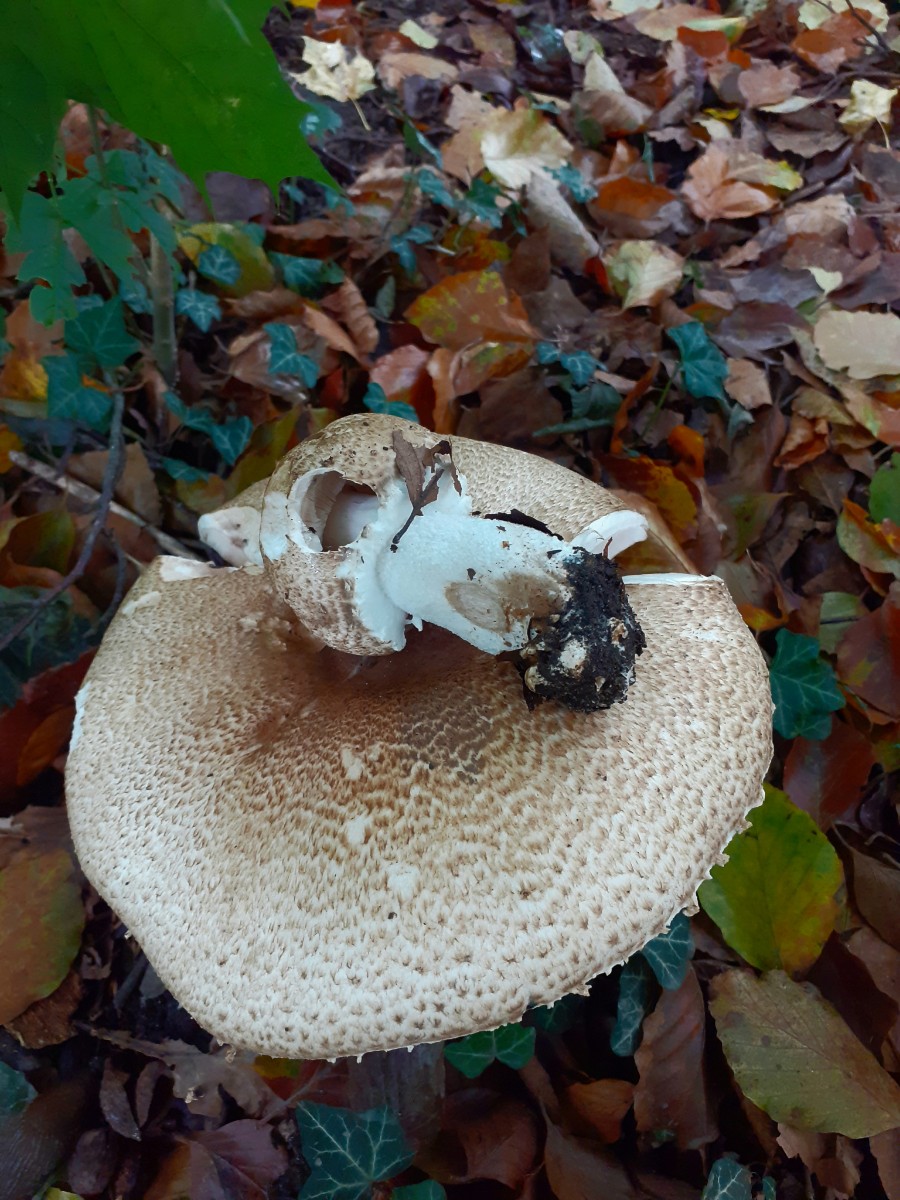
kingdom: Fungi
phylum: Basidiomycota
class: Agaricomycetes
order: Agaricales
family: Agaricaceae
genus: Agaricus
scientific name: Agaricus augustus
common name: prægtig champignon
